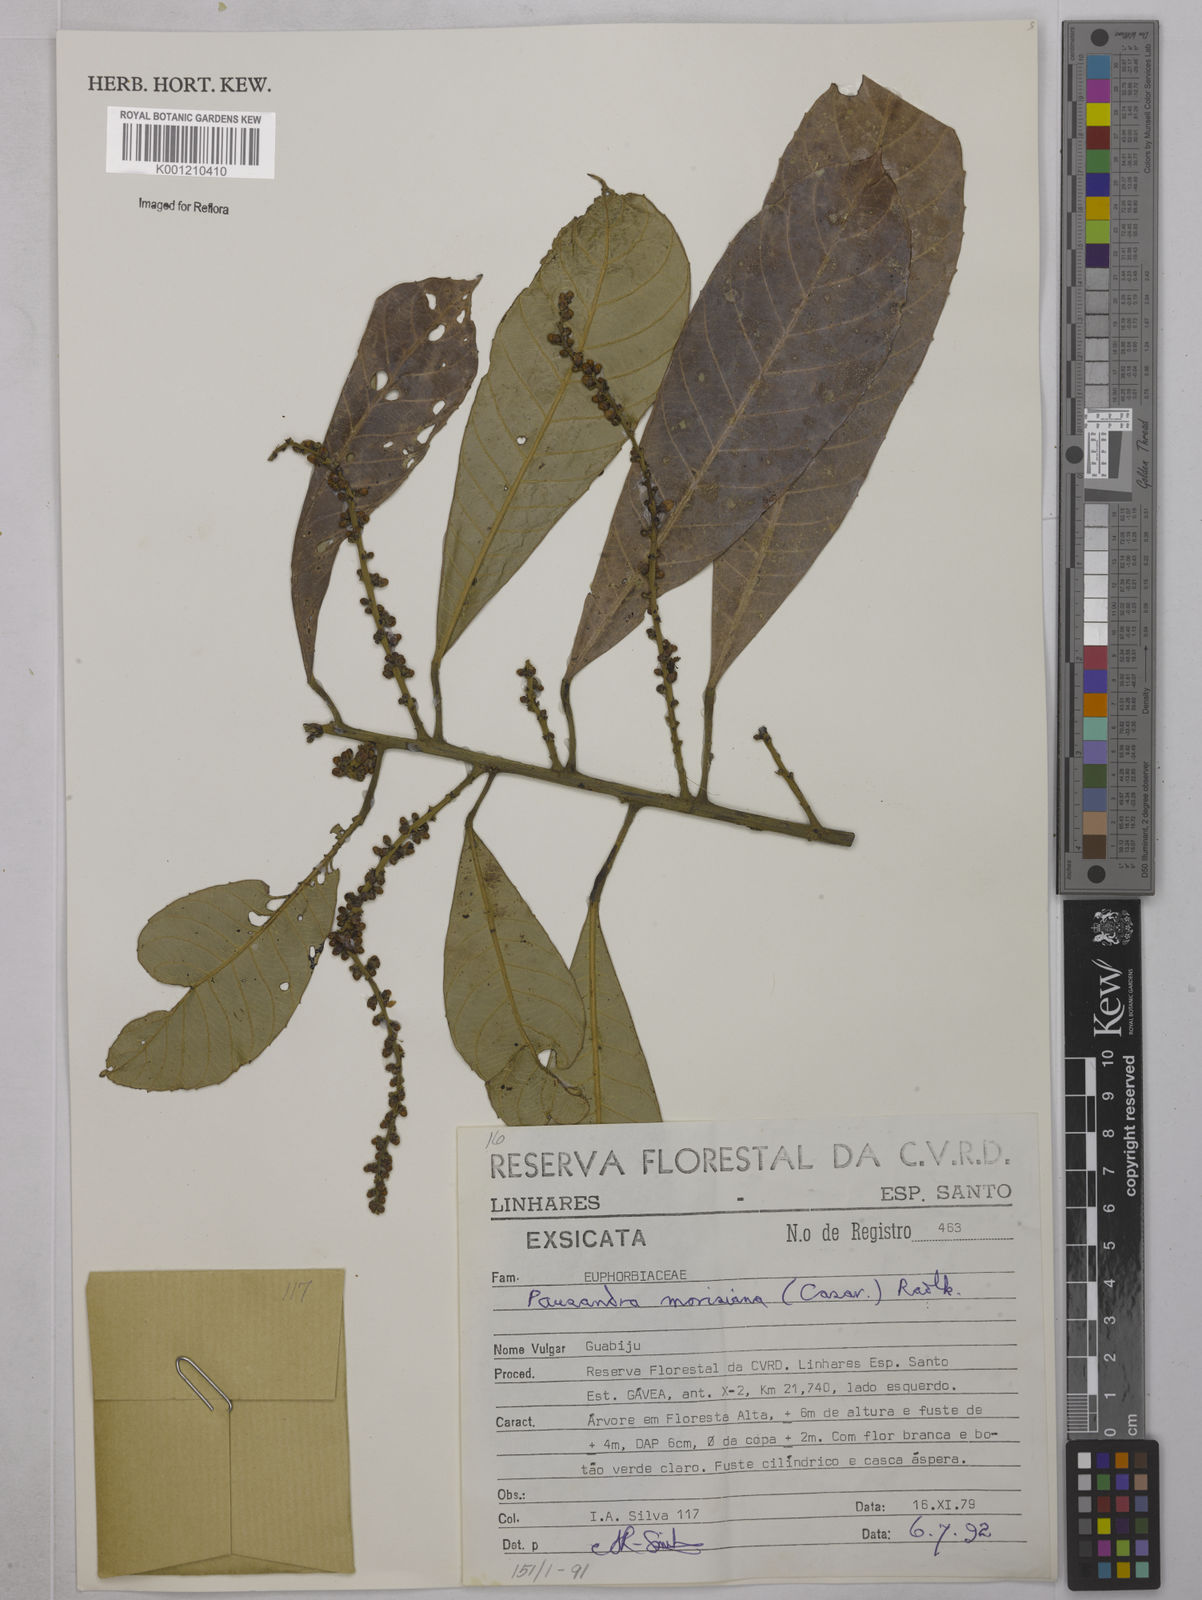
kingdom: Plantae
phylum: Tracheophyta
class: Magnoliopsida
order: Malpighiales
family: Euphorbiaceae
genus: Pausandra
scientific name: Pausandra morisiana
